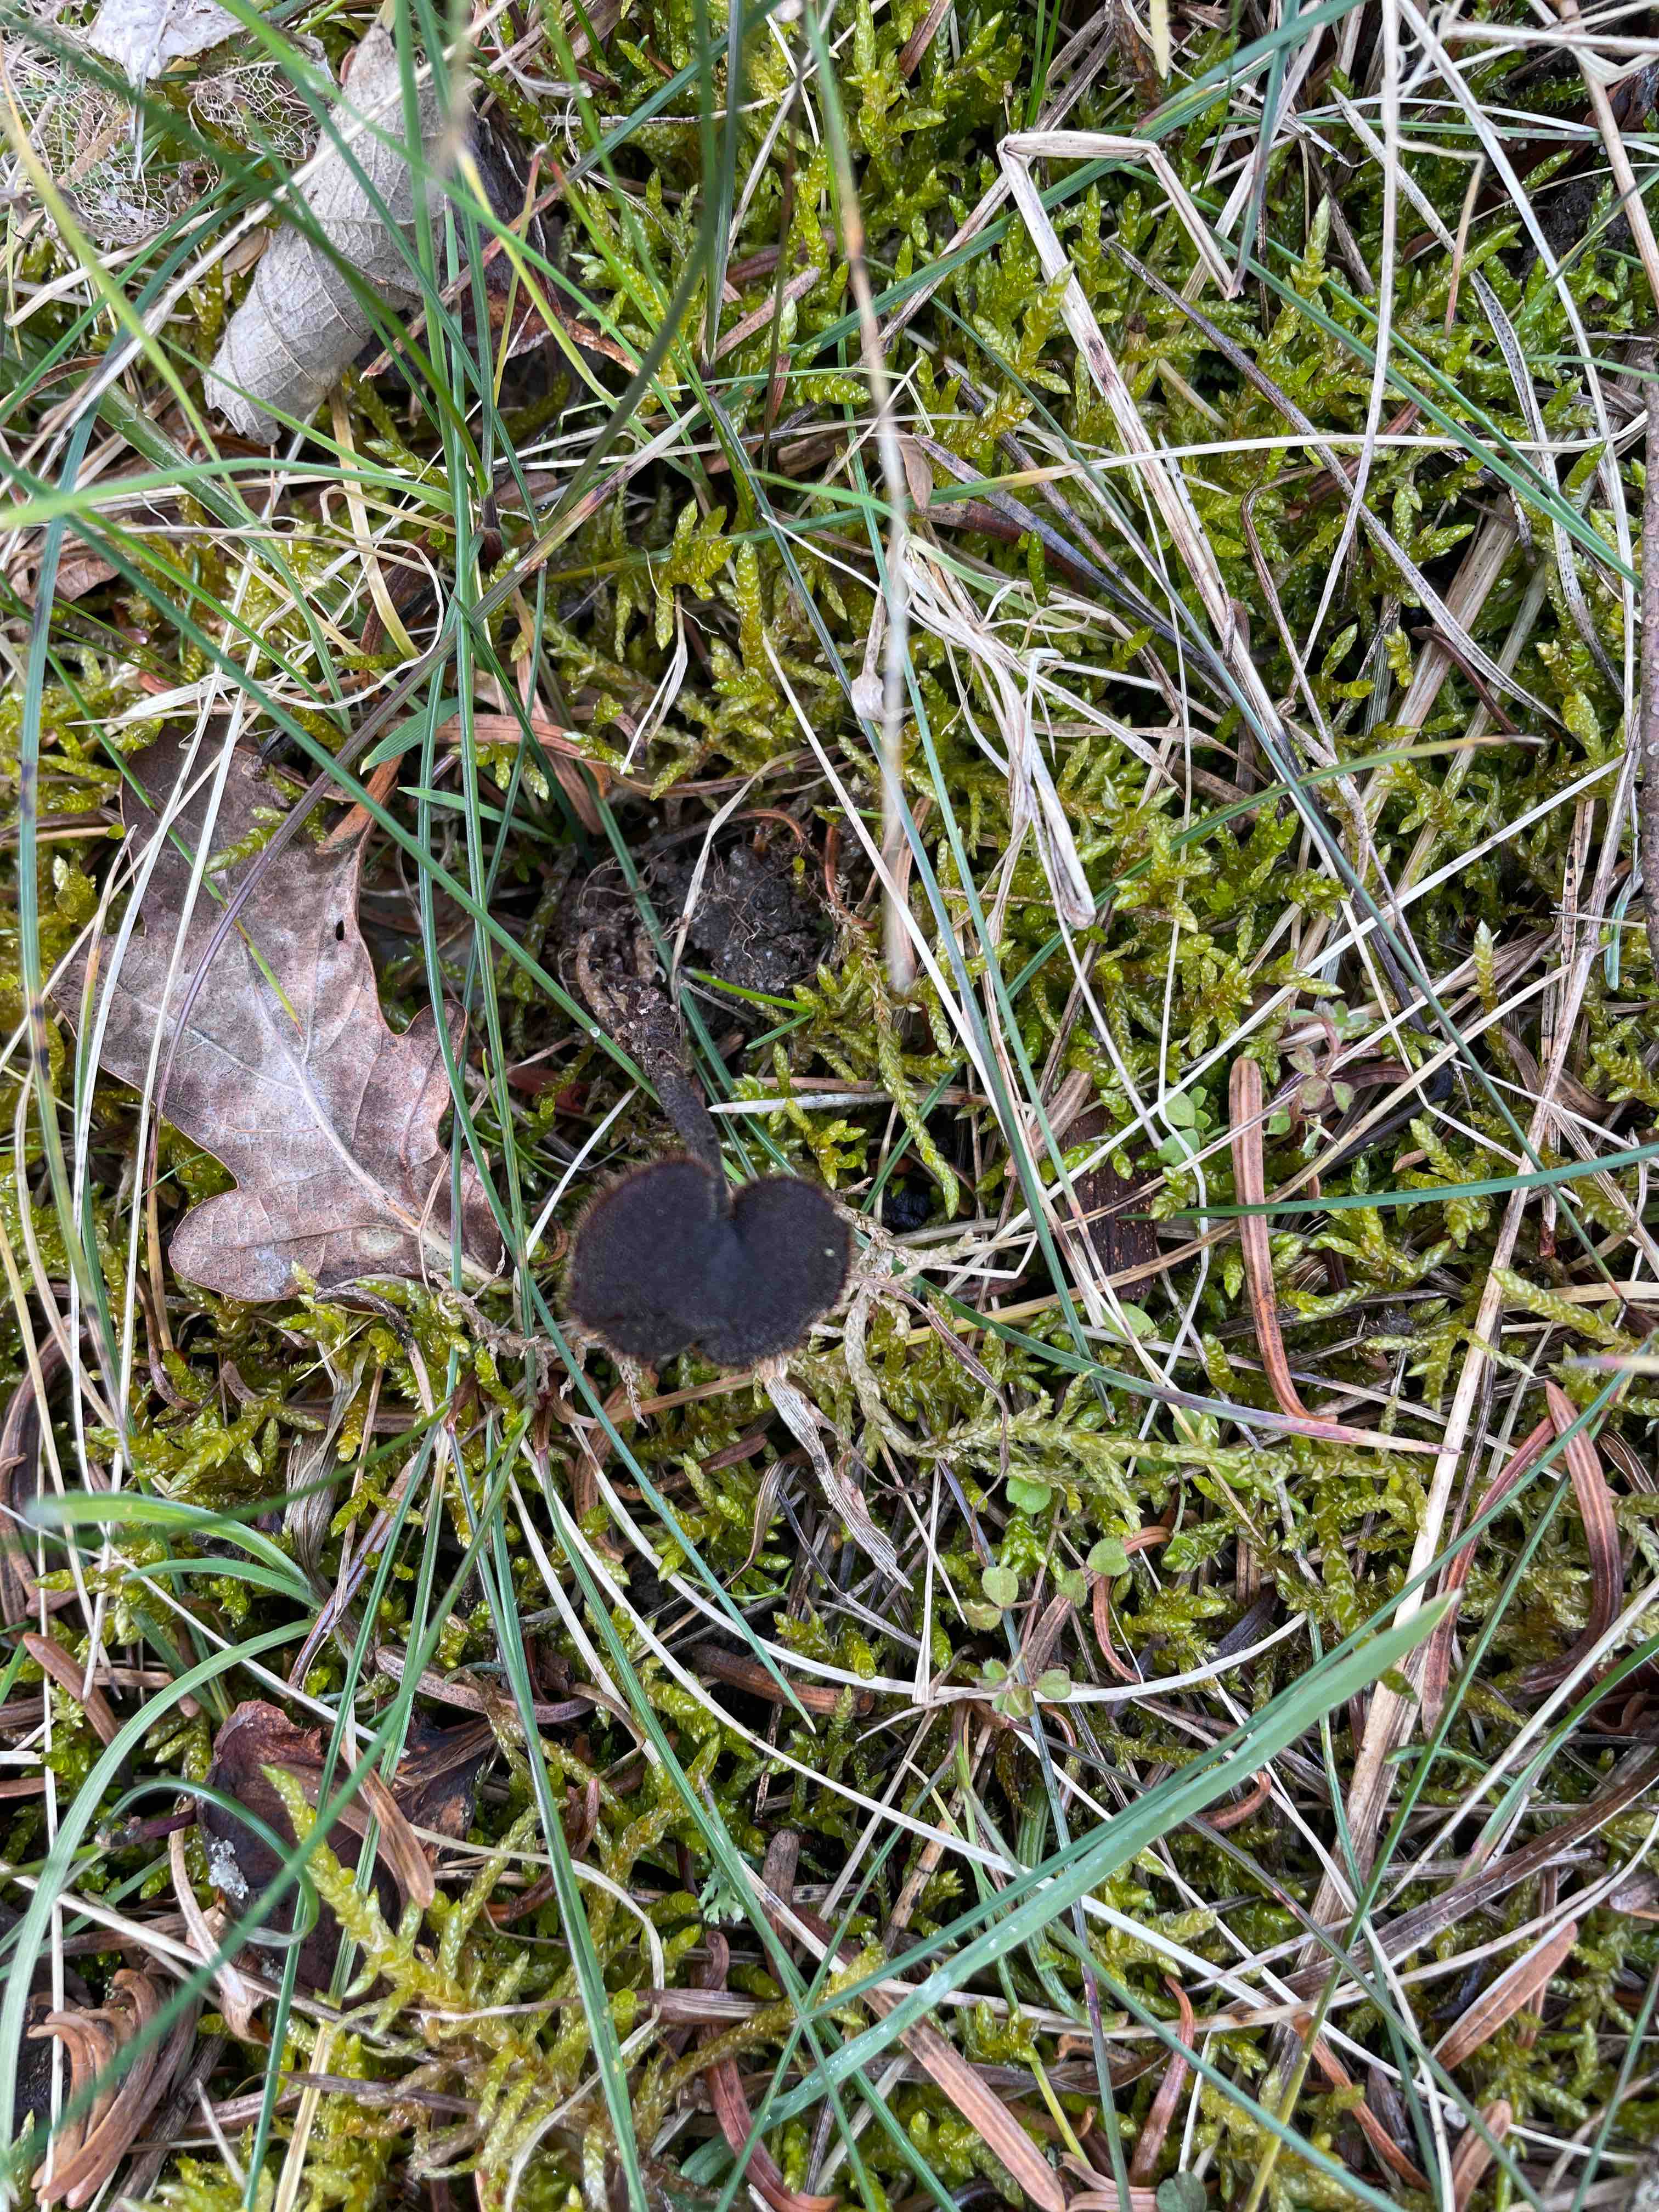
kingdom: Fungi
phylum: Basidiomycota
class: Agaricomycetes
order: Russulales
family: Auriscalpiaceae
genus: Auriscalpium
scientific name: Auriscalpium vulgare
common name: koglepigsvamp
